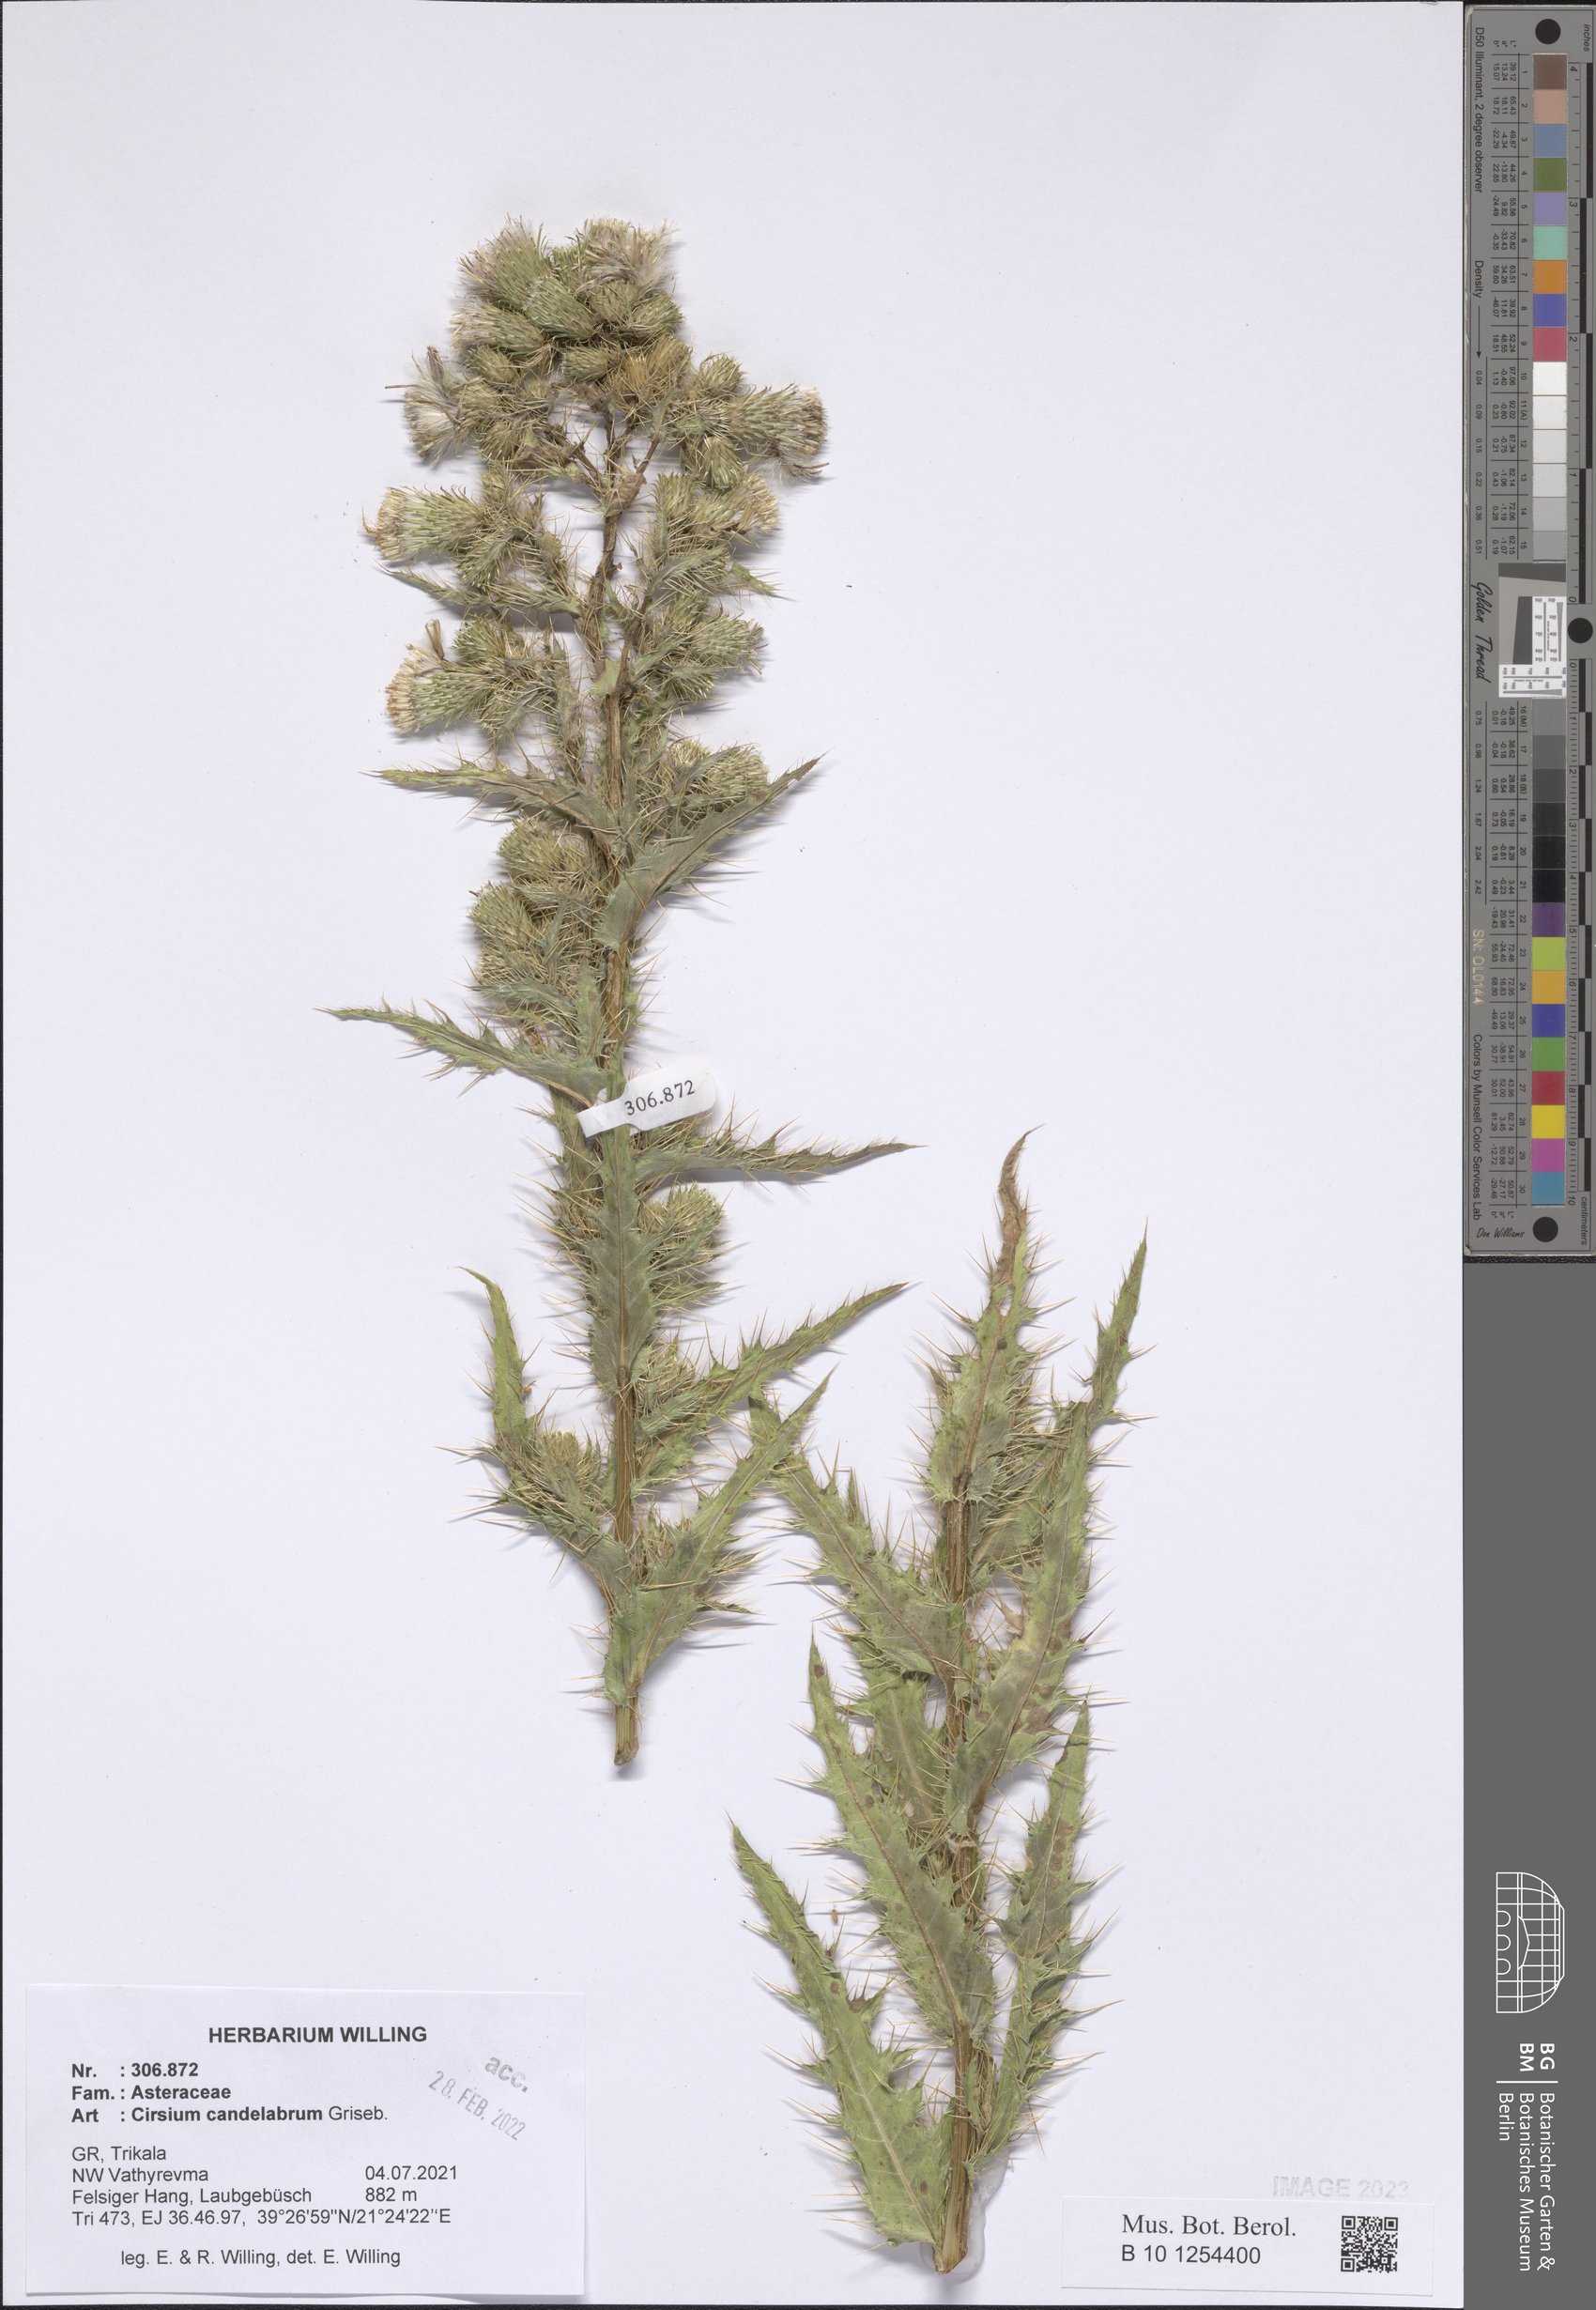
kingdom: Plantae
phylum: Tracheophyta
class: Magnoliopsida
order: Asterales
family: Asteraceae
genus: Cirsium
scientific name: Cirsium candelabrum
